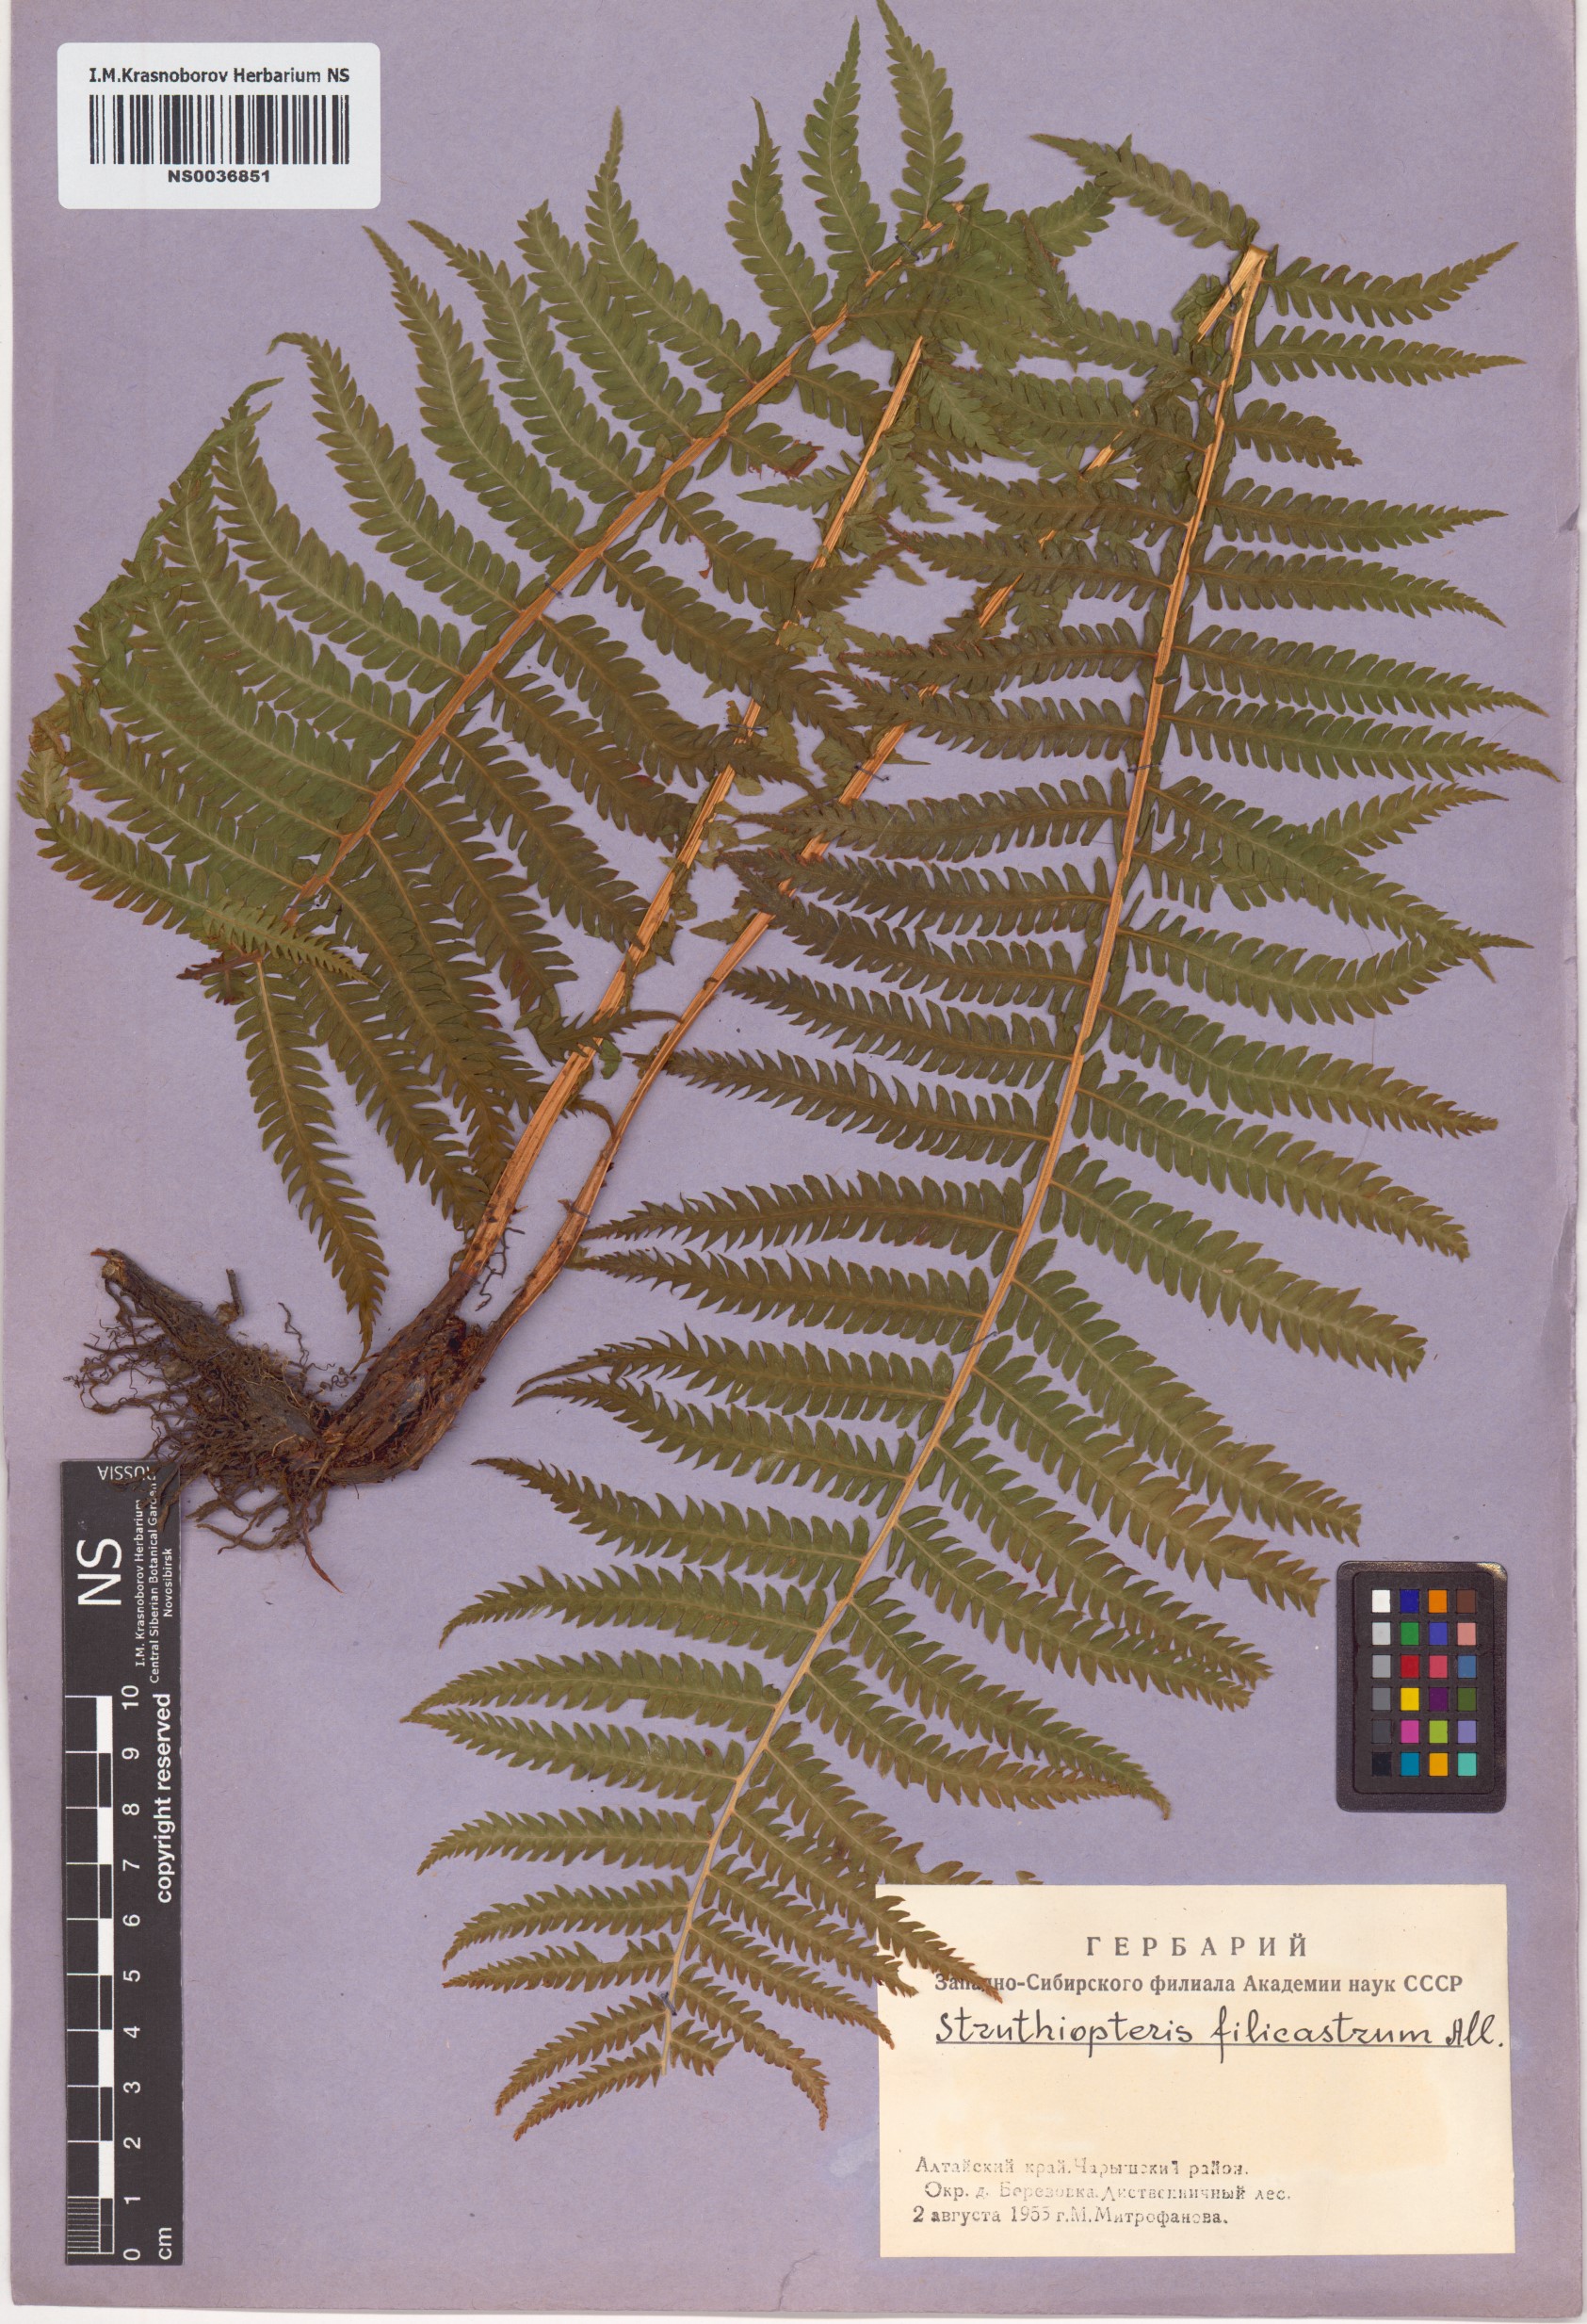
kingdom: Plantae
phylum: Tracheophyta
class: Polypodiopsida
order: Polypodiales
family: Onocleaceae
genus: Matteuccia
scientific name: Matteuccia struthiopteris
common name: Ostrich fern
